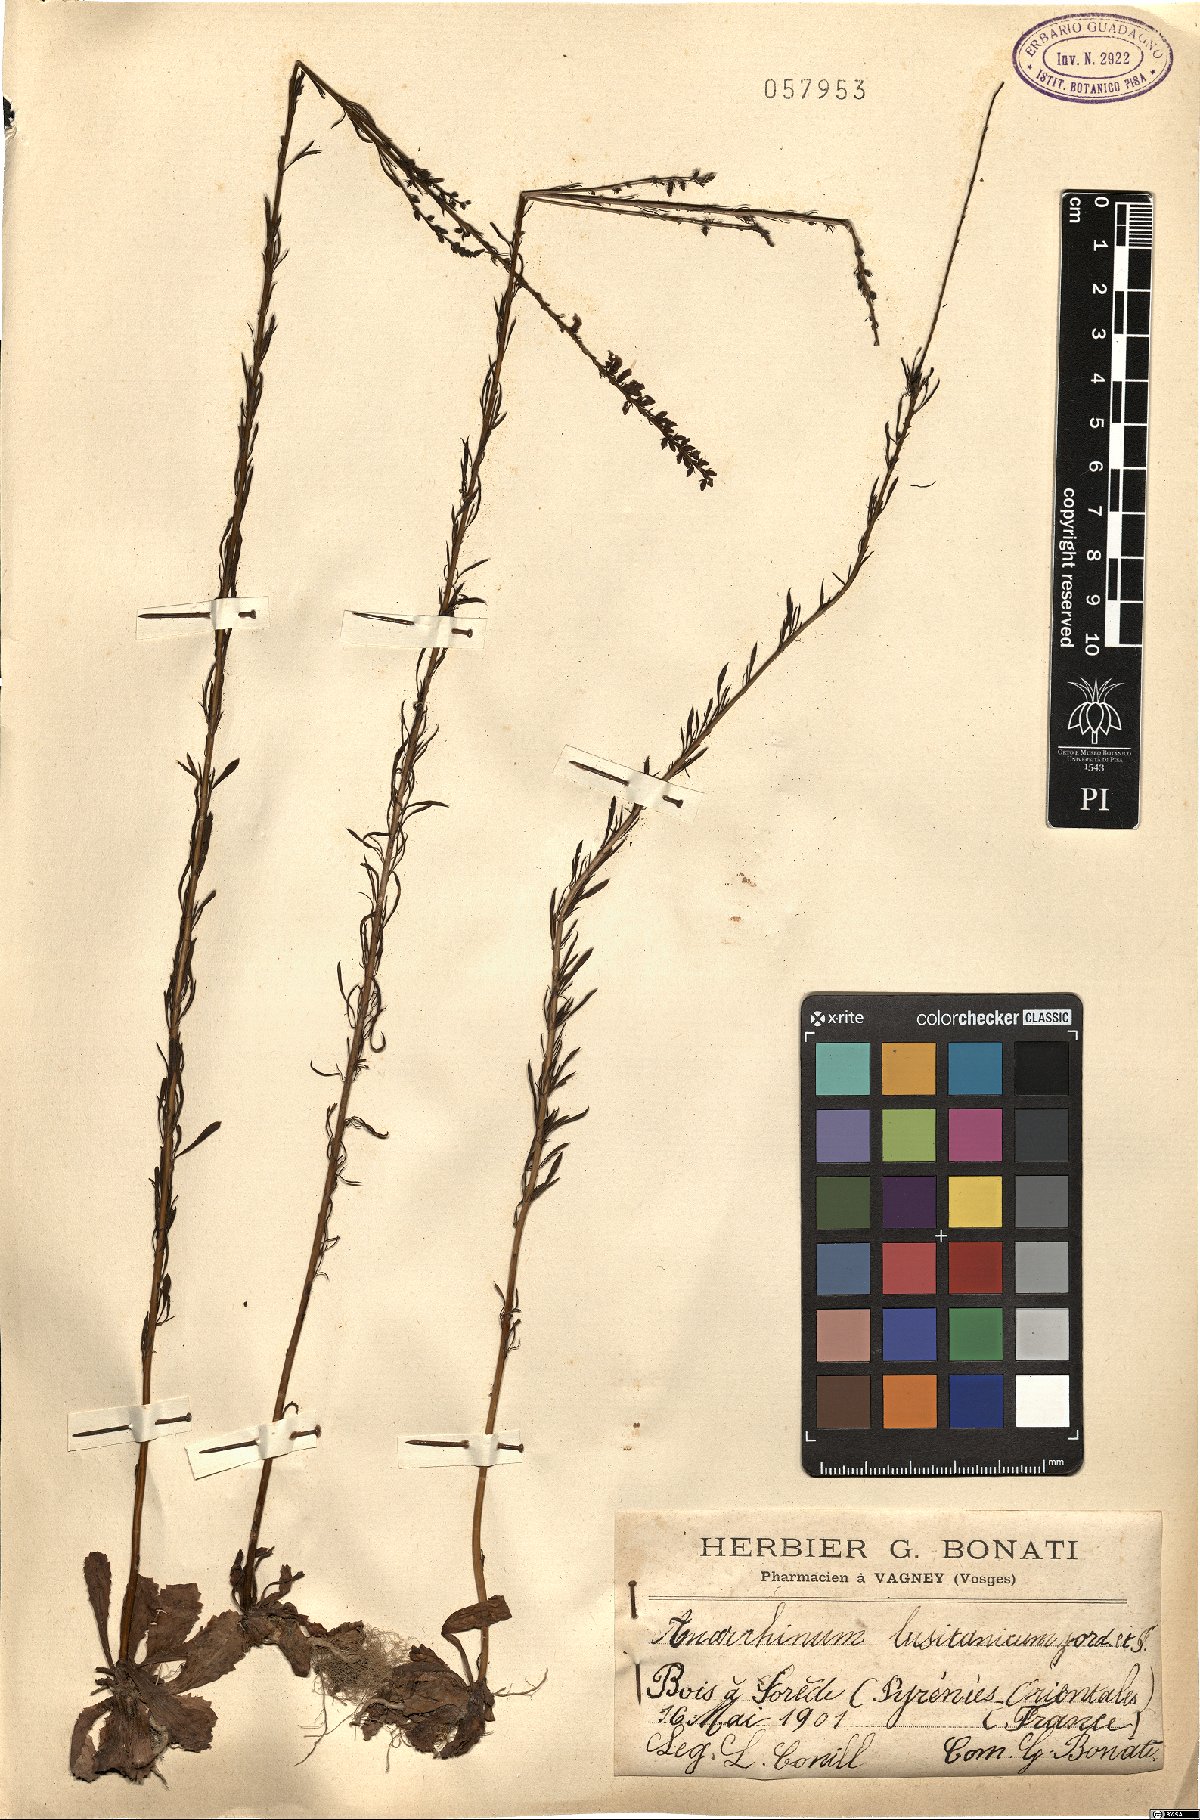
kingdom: Plantae
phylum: Tracheophyta
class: Magnoliopsida
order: Lamiales
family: Plantaginaceae
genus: Anarrhinum
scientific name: Anarrhinum bellidifolium
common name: Daisy-leaved toadflax
